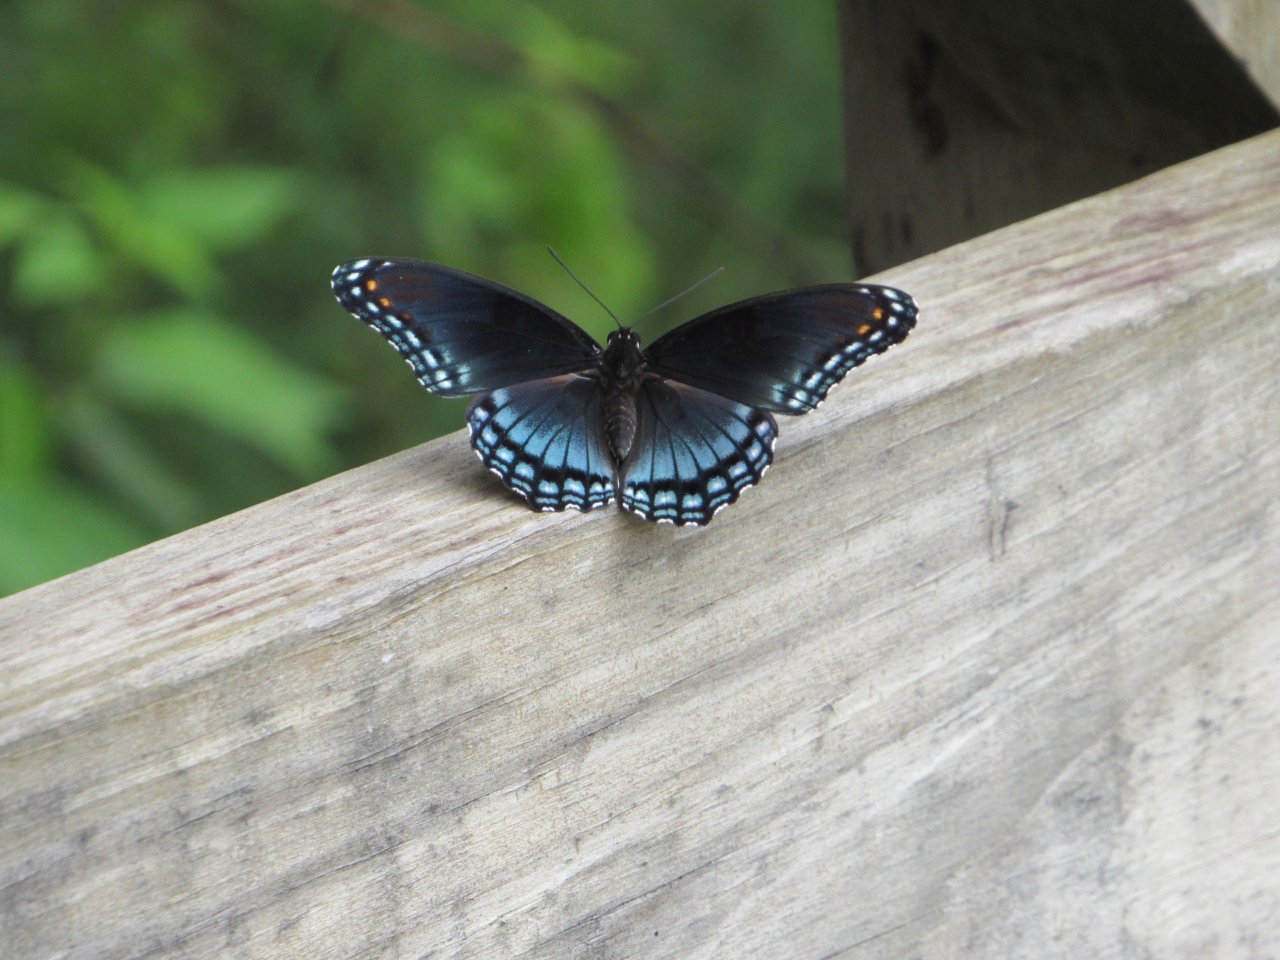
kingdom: Animalia
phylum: Arthropoda
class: Insecta
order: Lepidoptera
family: Nymphalidae
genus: Limenitis
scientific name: Limenitis astyanax
